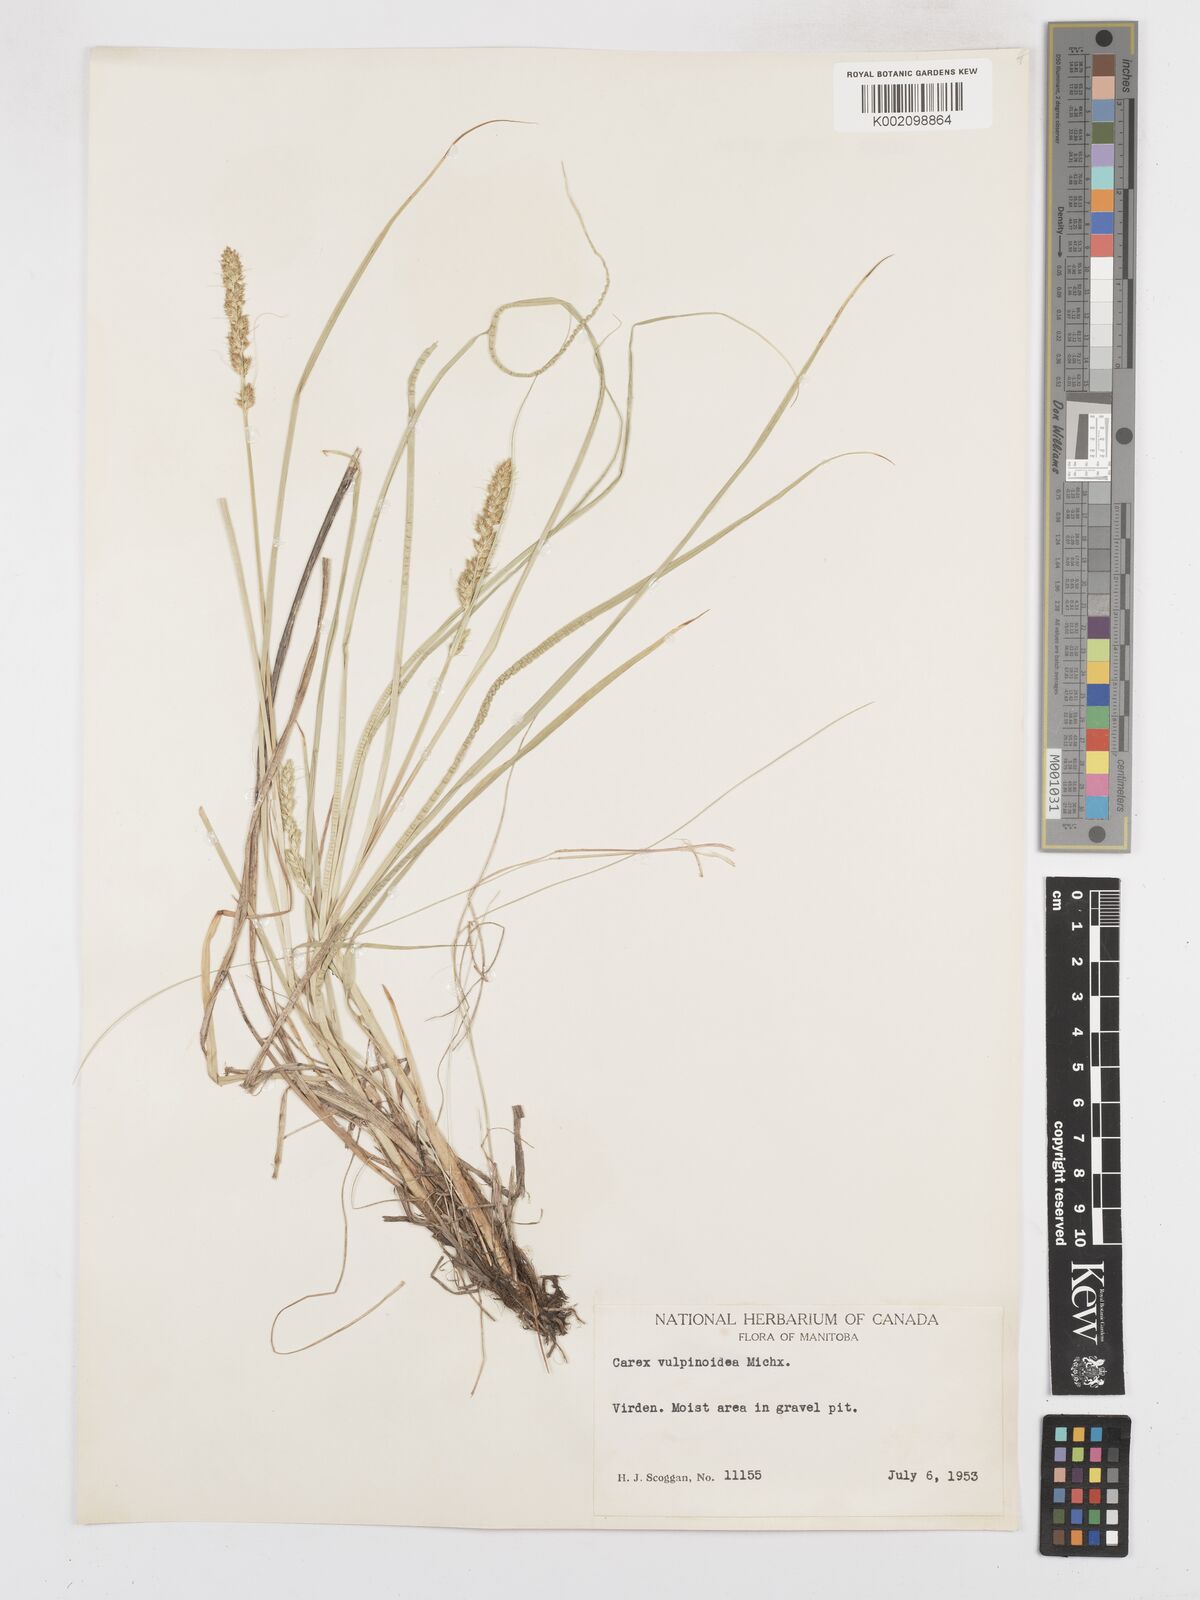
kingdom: Plantae
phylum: Tracheophyta
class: Liliopsida
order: Poales
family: Cyperaceae
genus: Carex
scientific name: Carex vulpinoidea
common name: American fox-sedge
